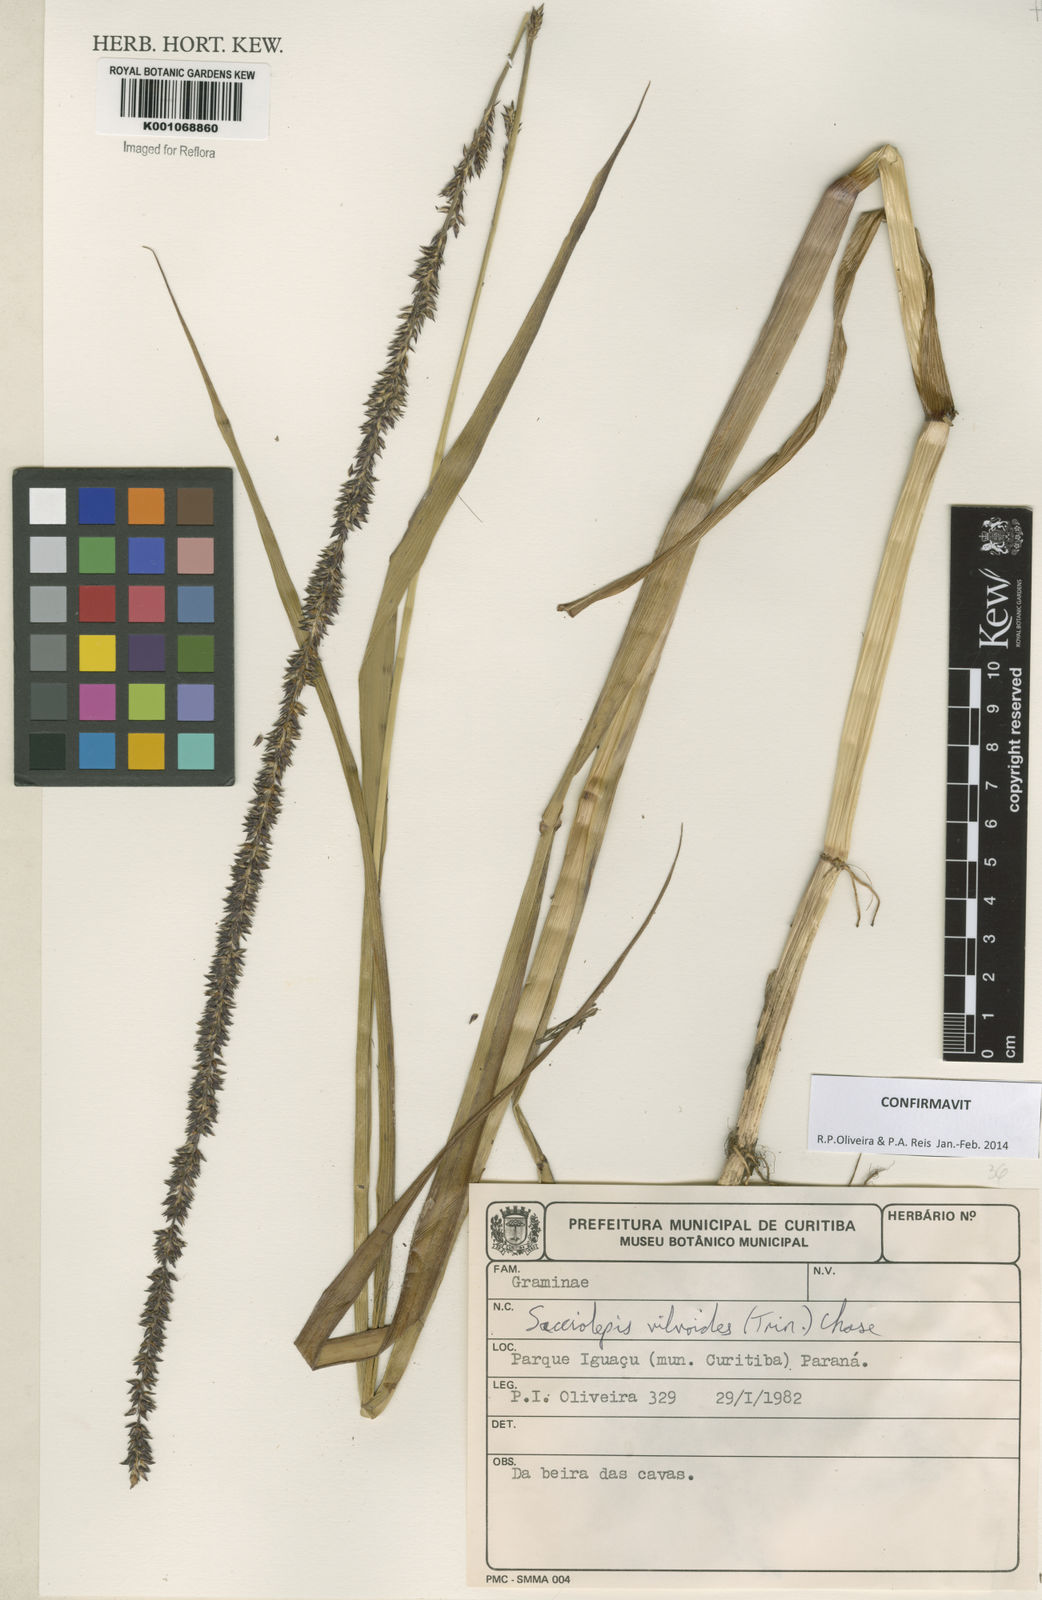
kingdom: Plantae
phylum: Tracheophyta
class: Liliopsida
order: Poales
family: Poaceae
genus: Sacciolepis
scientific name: Sacciolepis vilvoides
